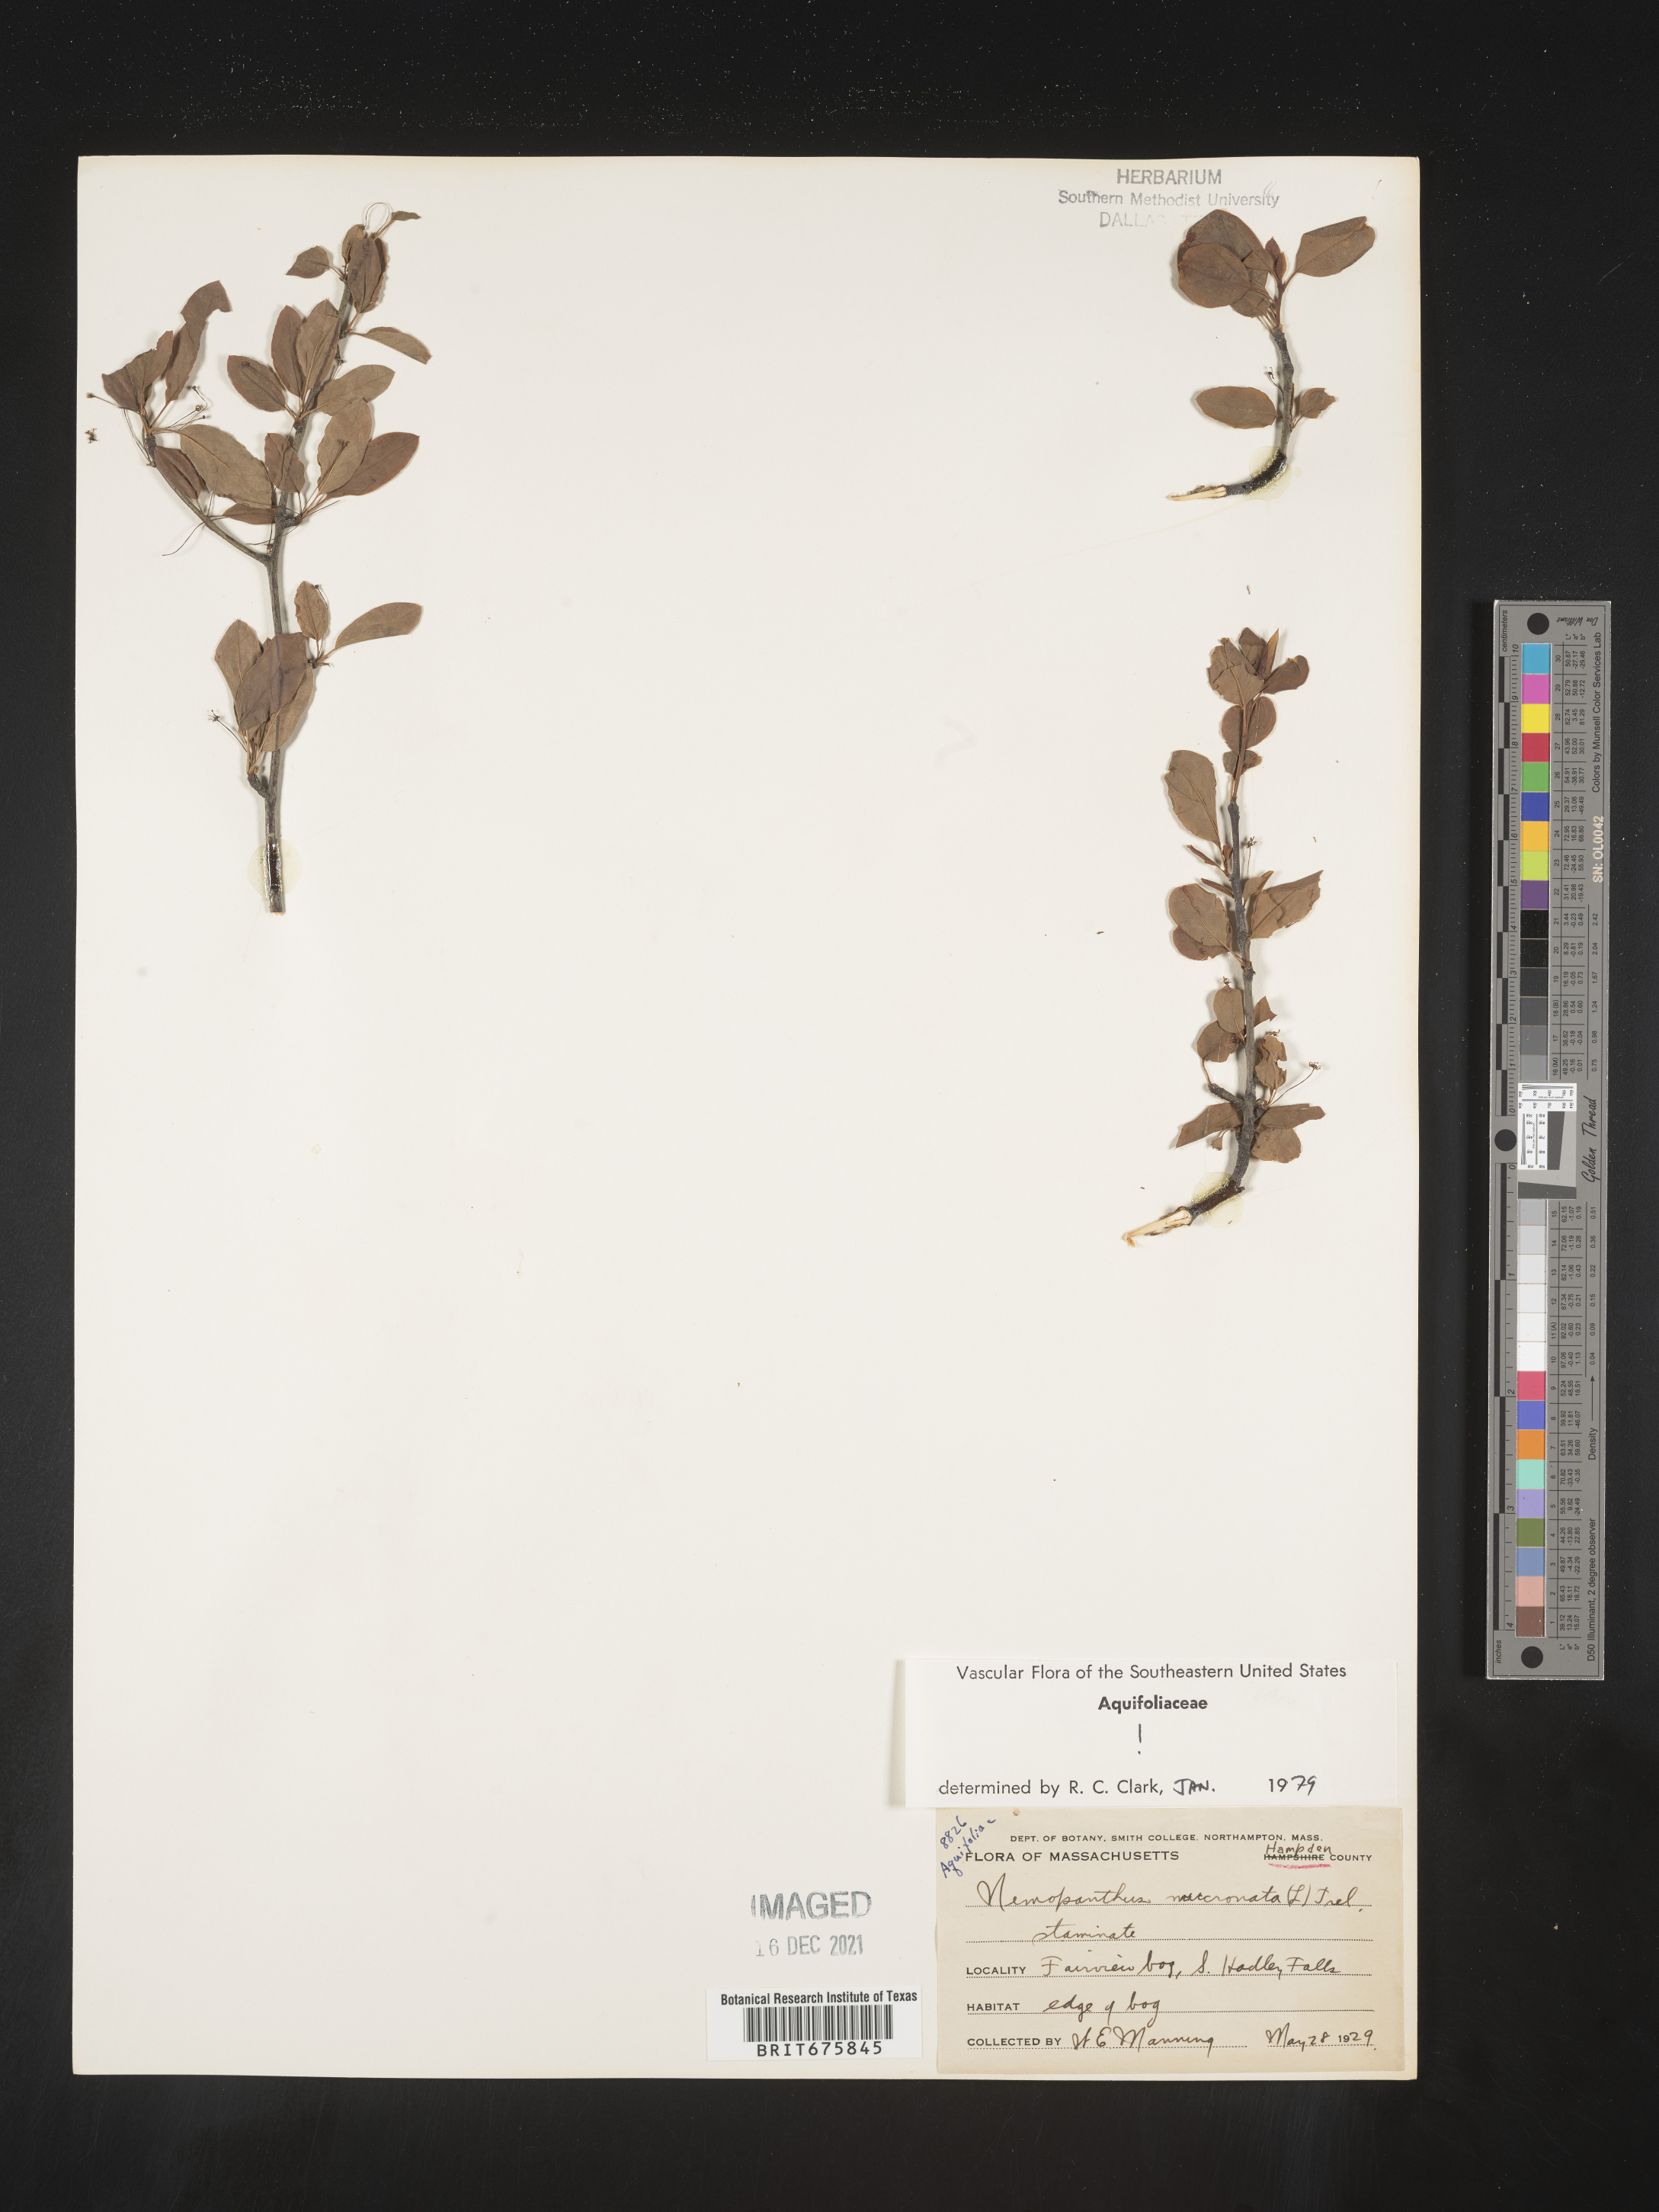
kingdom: Plantae
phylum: Tracheophyta
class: Magnoliopsida
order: Aquifoliales
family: Aquifoliaceae
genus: Ilex
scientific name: Ilex mucronata
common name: Catberry
